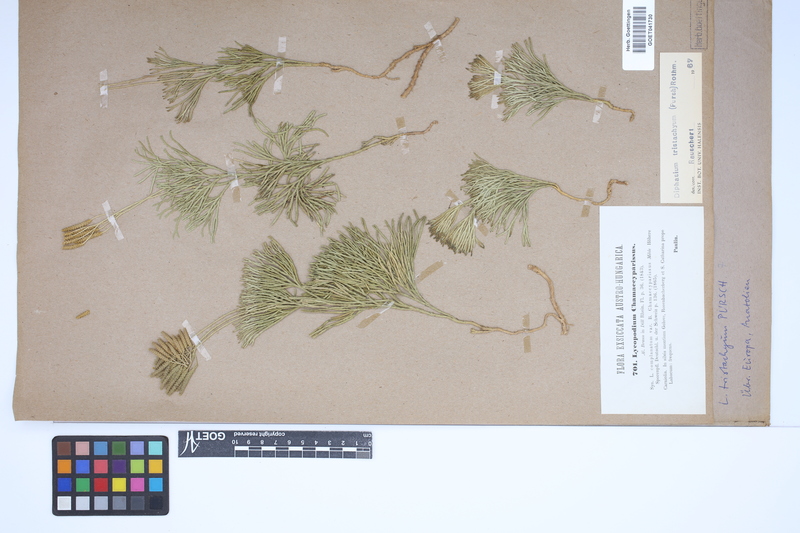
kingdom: Plantae
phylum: Tracheophyta
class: Lycopodiopsida
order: Lycopodiales
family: Lycopodiaceae
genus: Diphasiastrum
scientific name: Diphasiastrum tristachyum
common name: Blue ground-cedar
